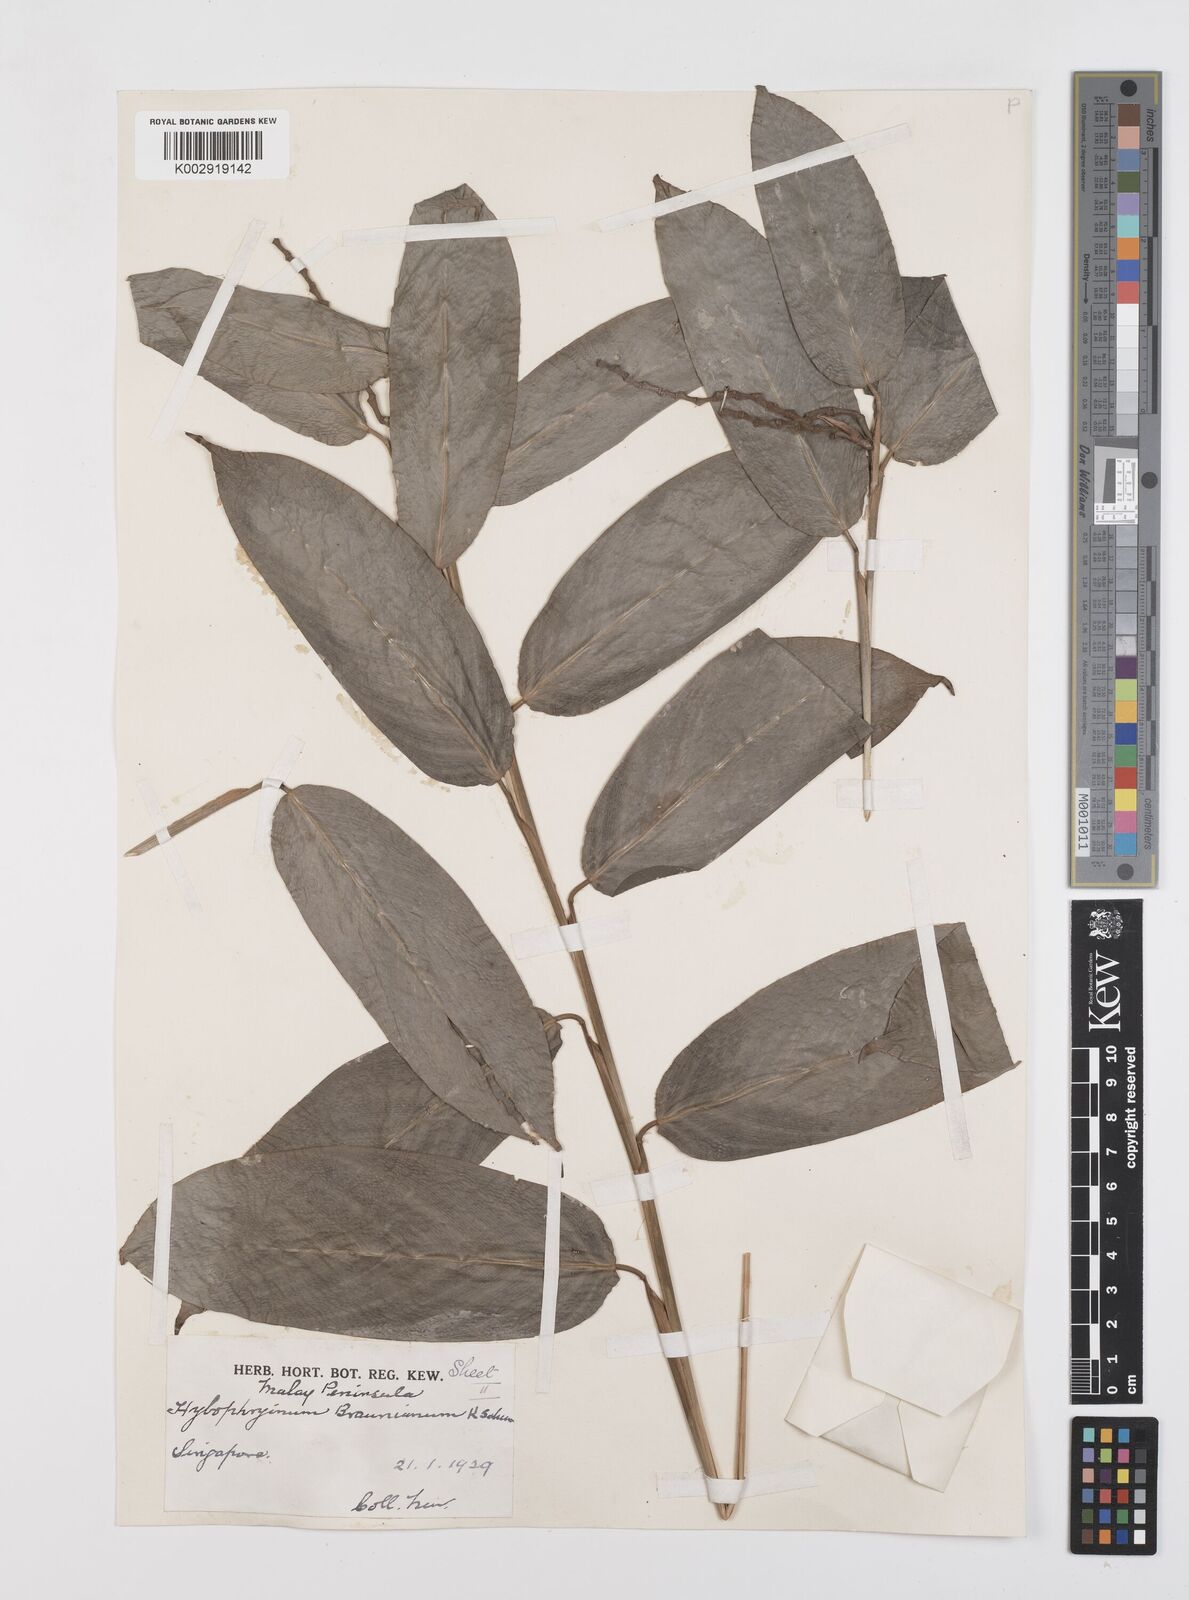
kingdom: Plantae
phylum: Tracheophyta
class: Liliopsida
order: Zingiberales
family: Marantaceae
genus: Trachyphrynium
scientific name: Trachyphrynium braunianum
